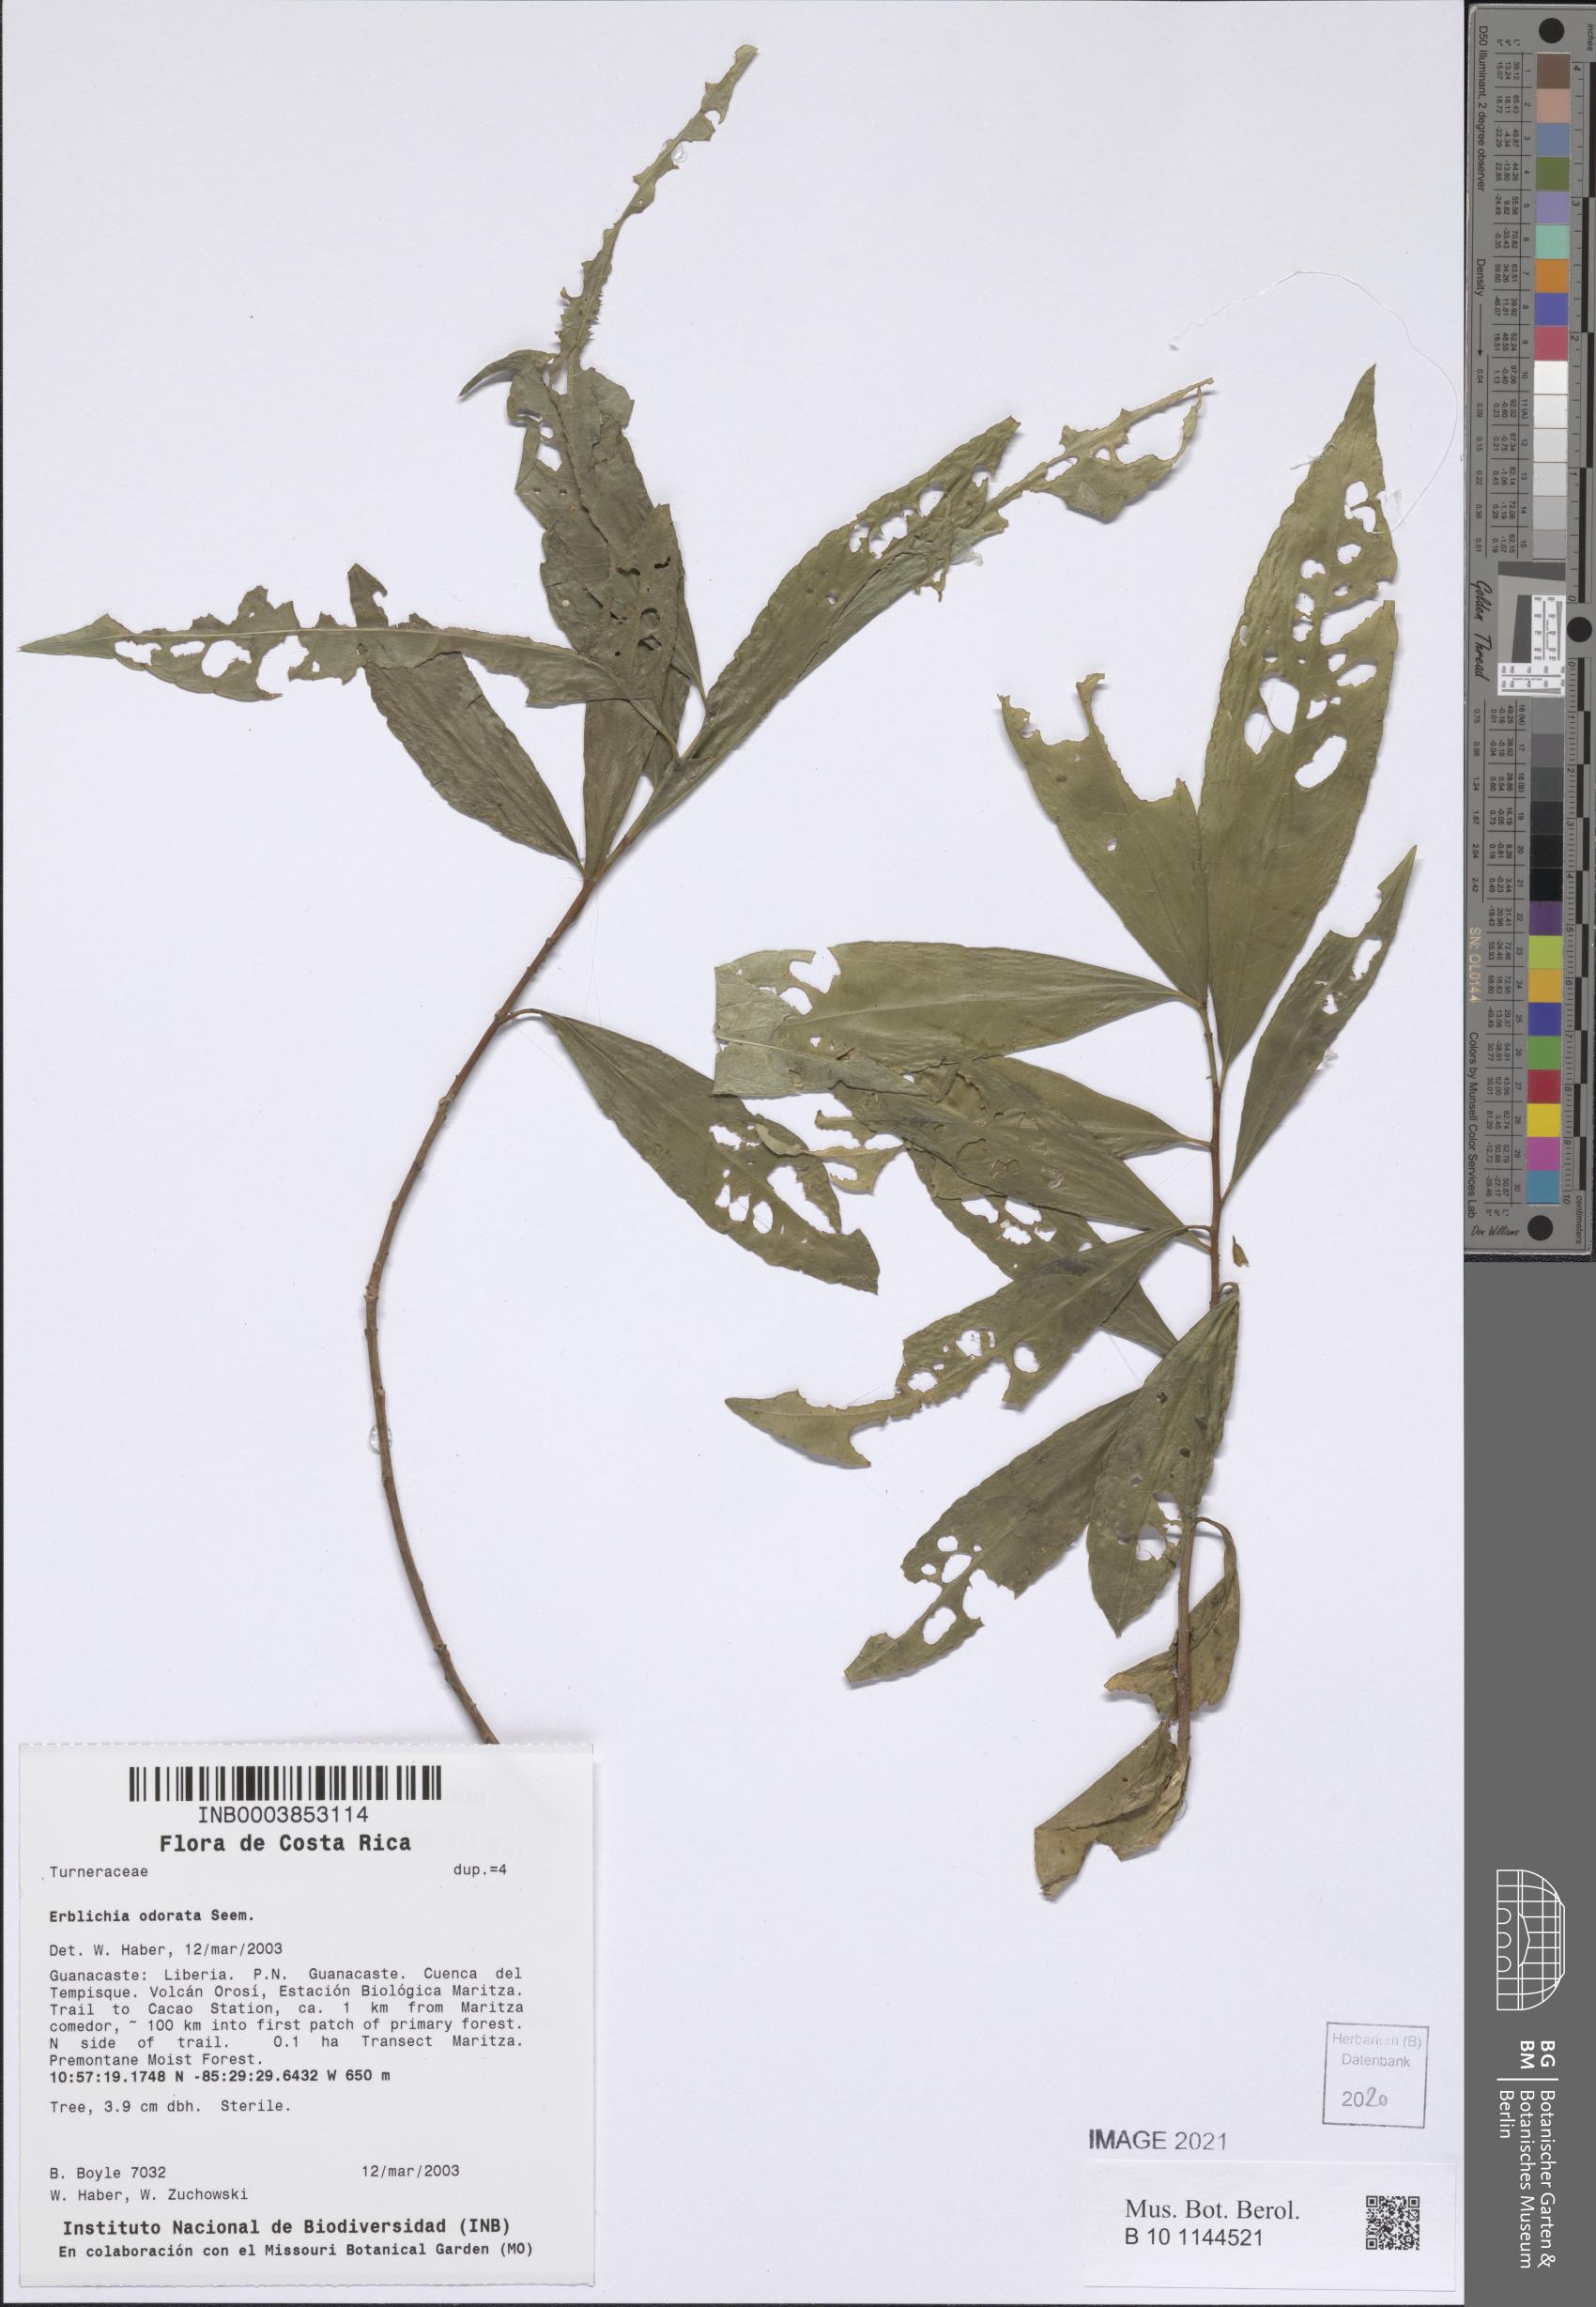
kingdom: Plantae
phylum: Tracheophyta
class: Magnoliopsida
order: Malpighiales
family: Turneraceae
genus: Erblichia
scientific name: Erblichia odorata
